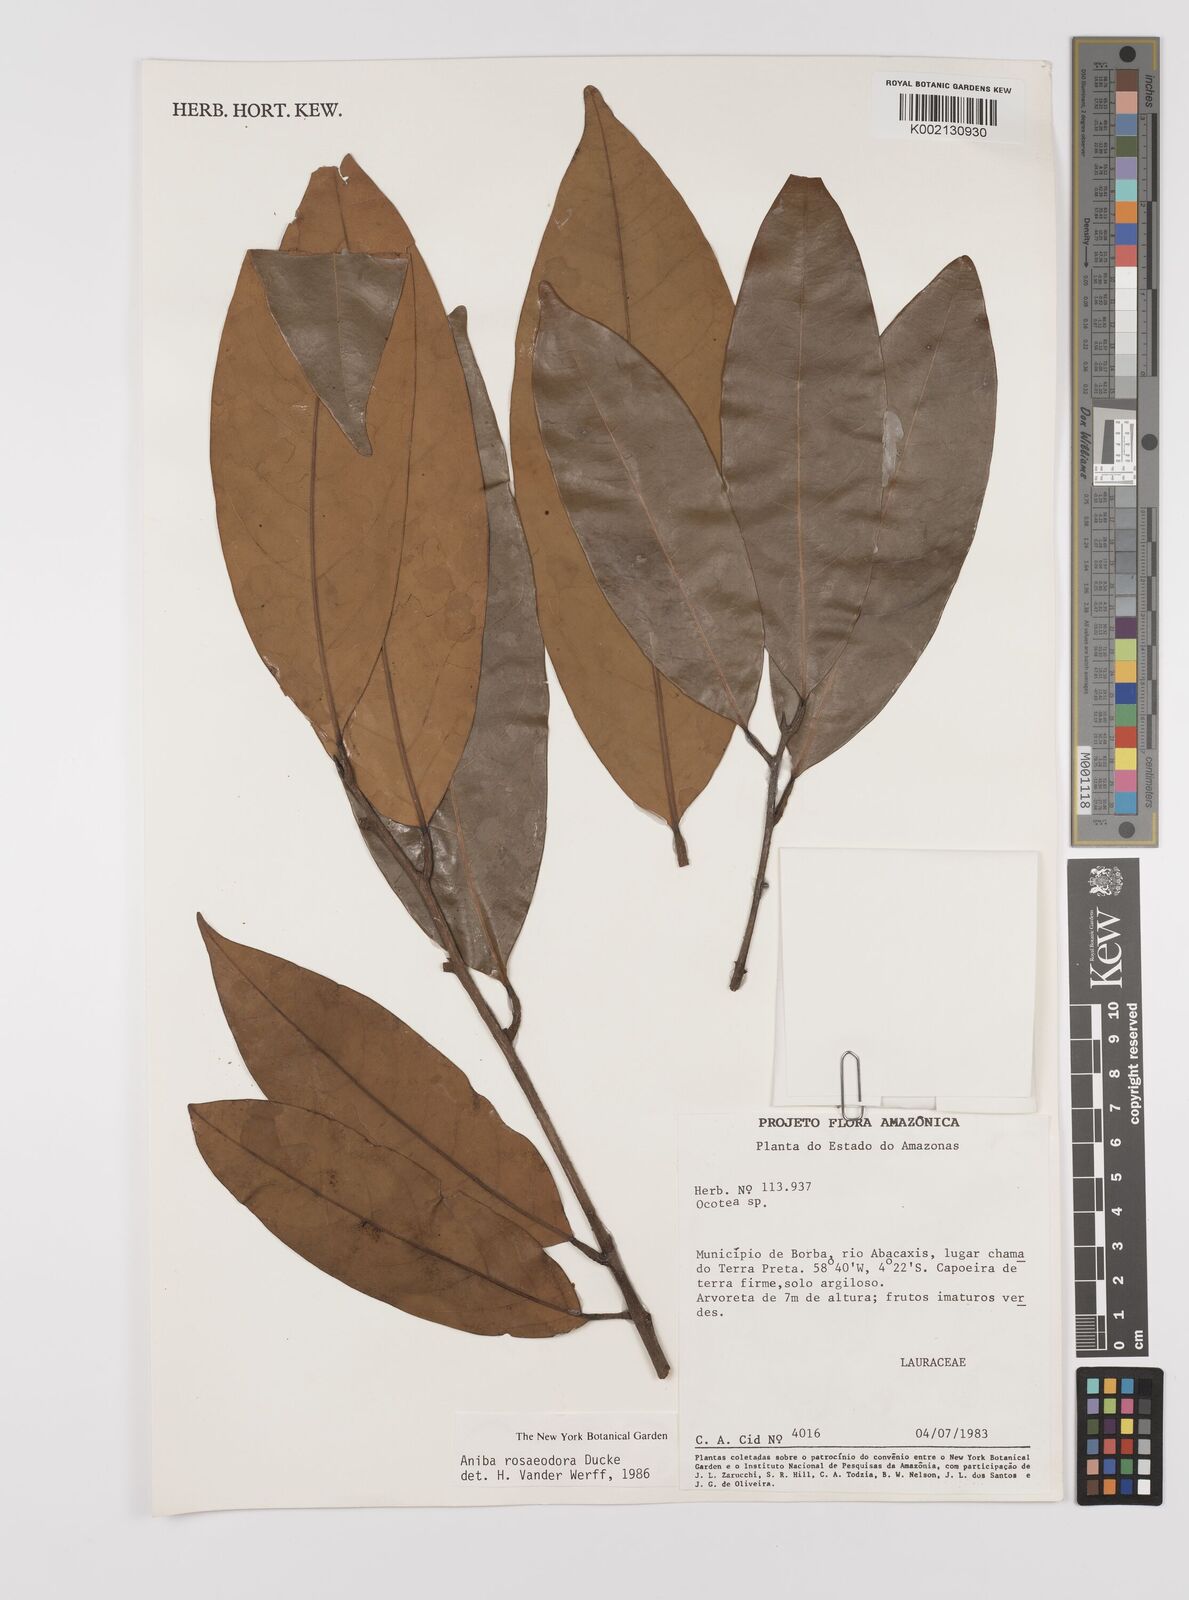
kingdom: Plantae
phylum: Tracheophyta
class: Magnoliopsida
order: Laurales
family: Lauraceae
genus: Aniba
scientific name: Aniba rosodora
